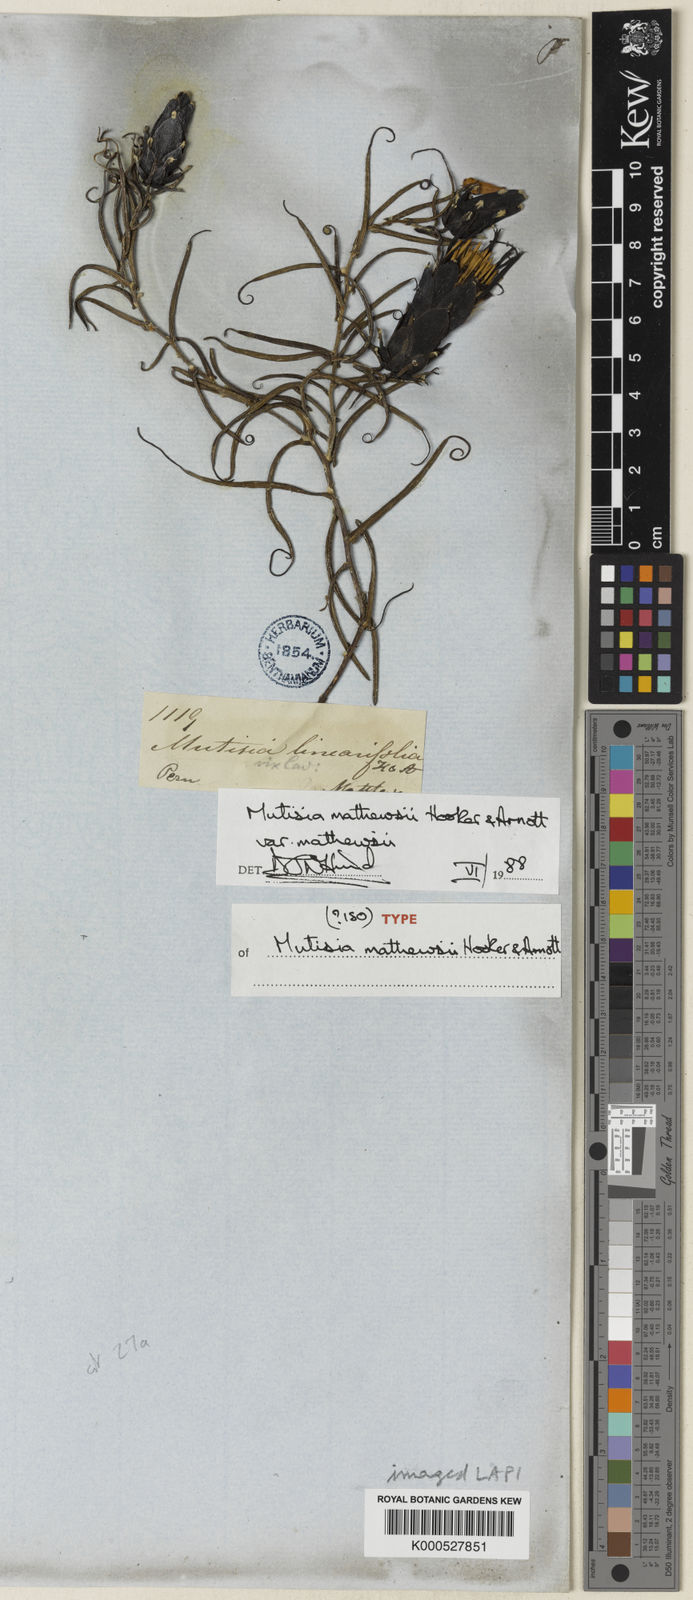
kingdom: Plantae
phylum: Tracheophyta
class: Magnoliopsida
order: Asterales
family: Asteraceae
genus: Mutisia
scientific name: Mutisia mathewsii
